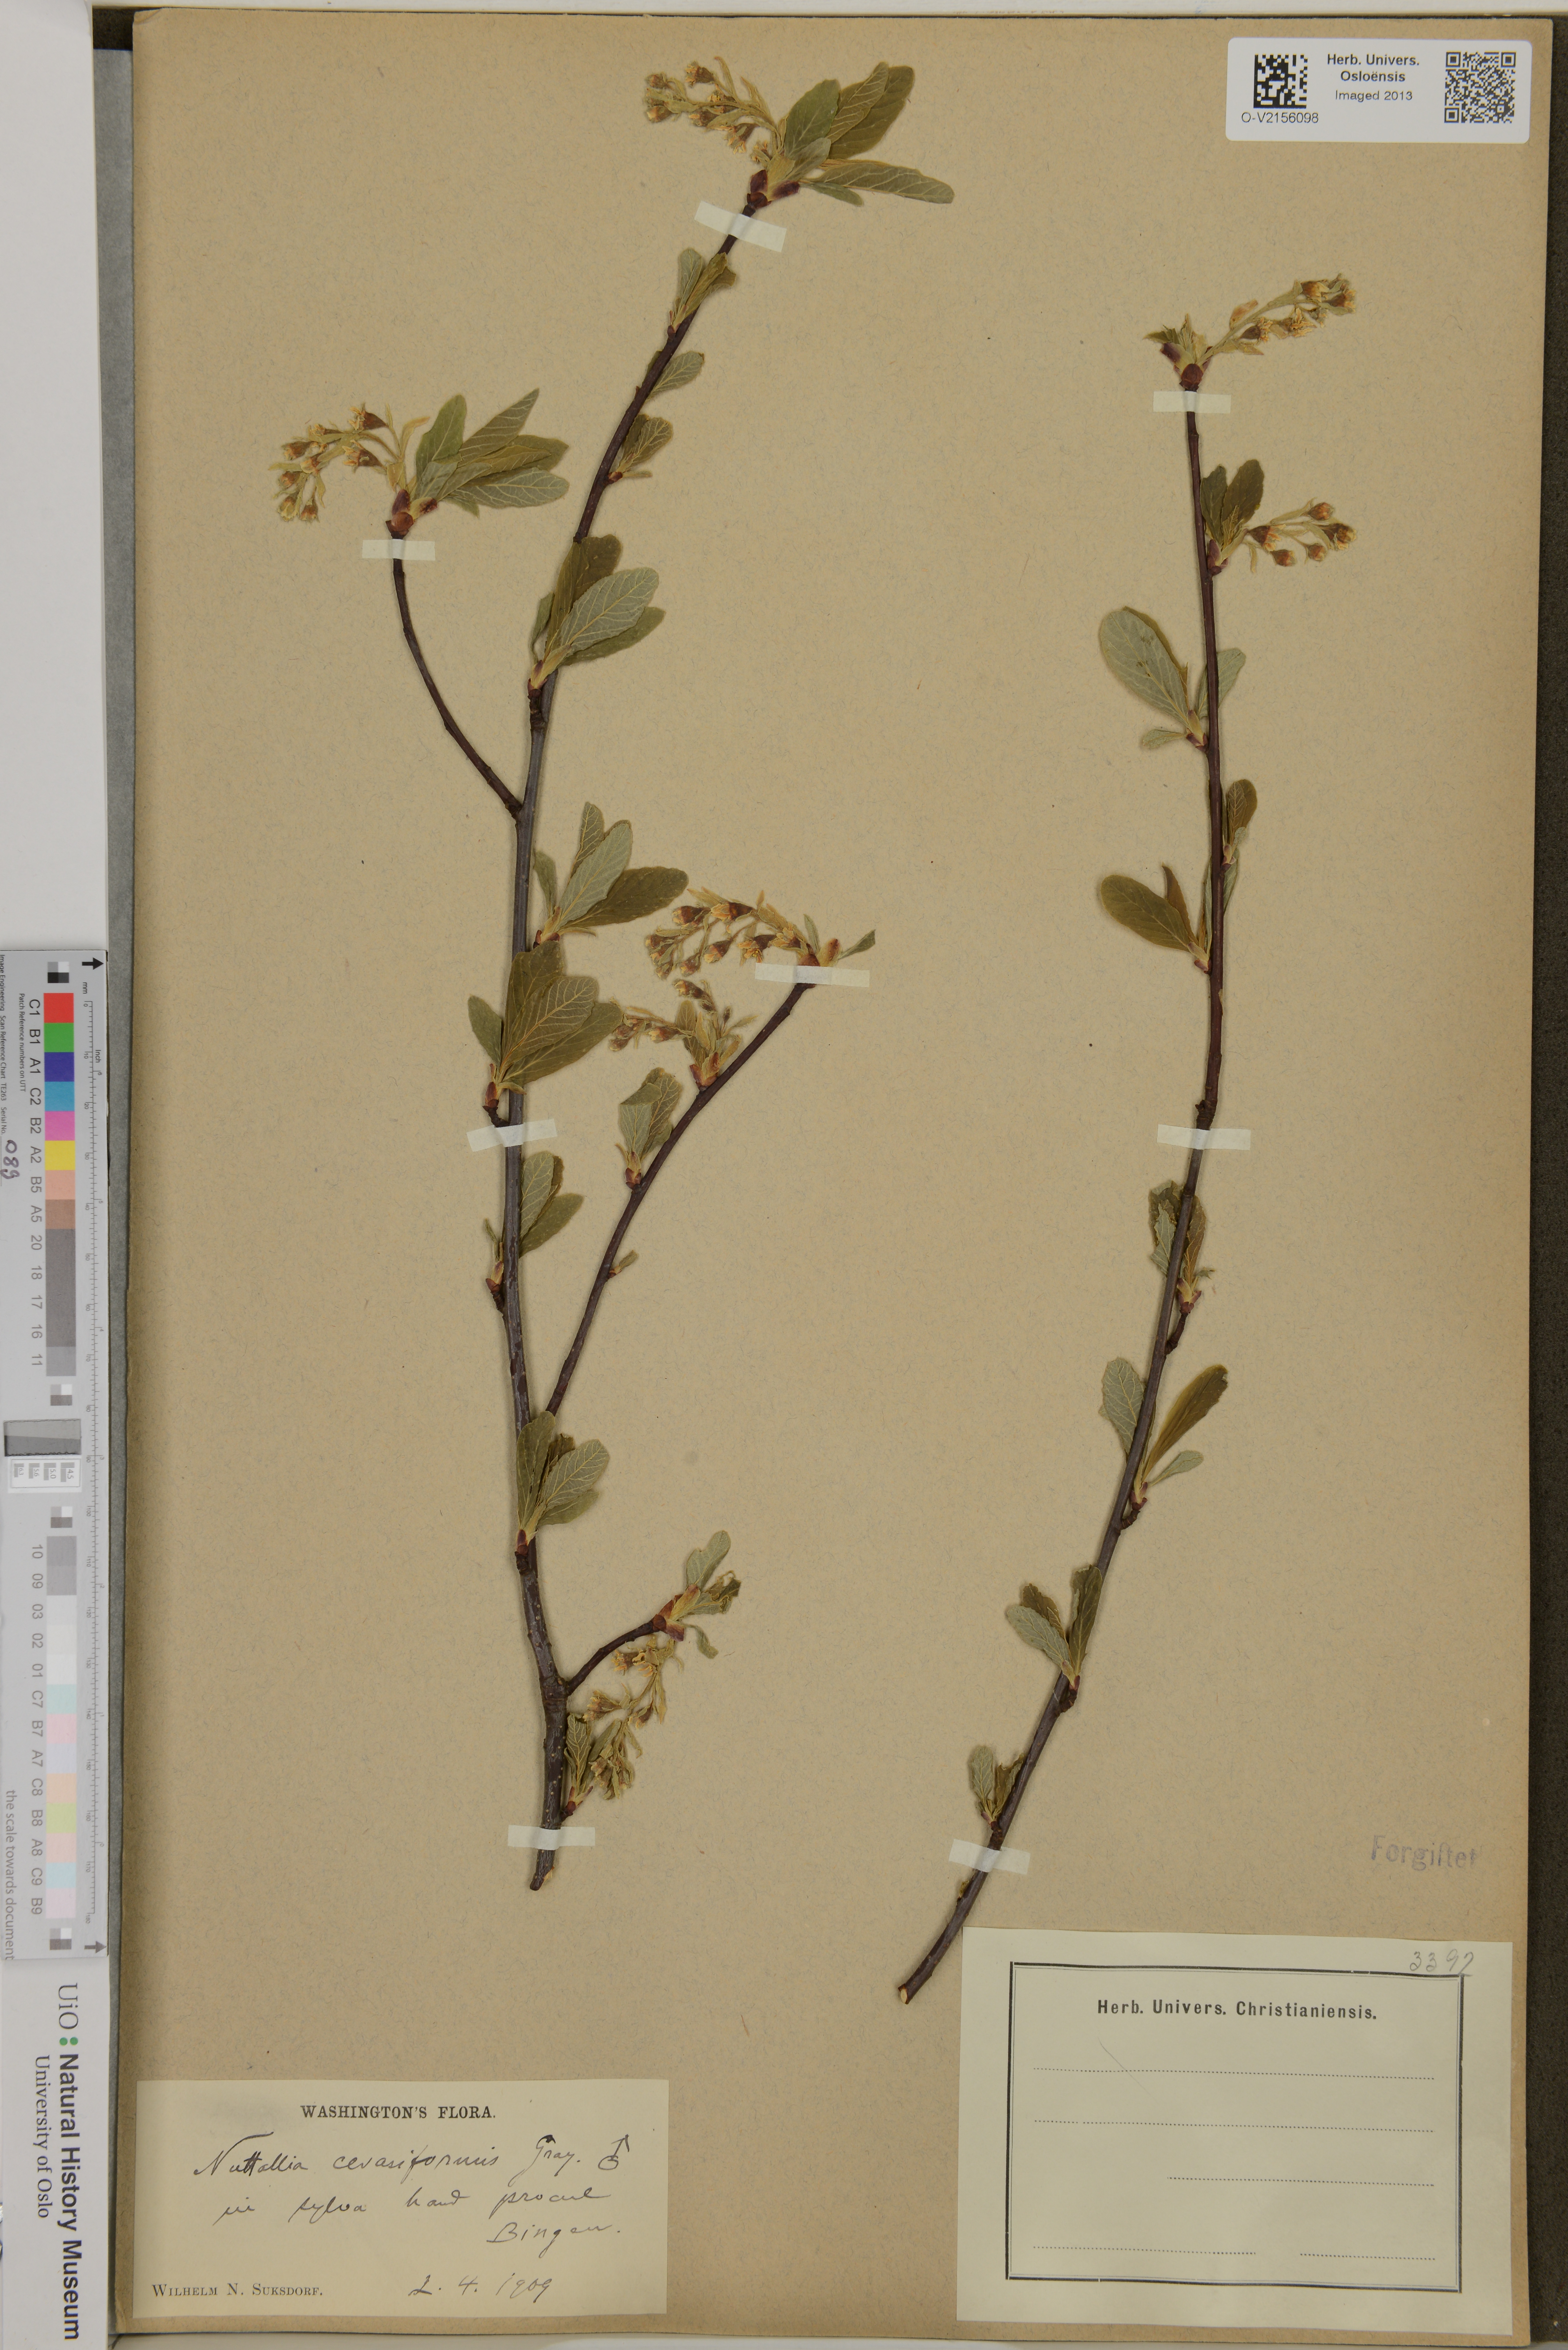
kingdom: Plantae
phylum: Tracheophyta
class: Magnoliopsida
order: Rosales
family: Rosaceae
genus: Oemleria
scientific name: Oemleria cerasiformis
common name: Osoberry
